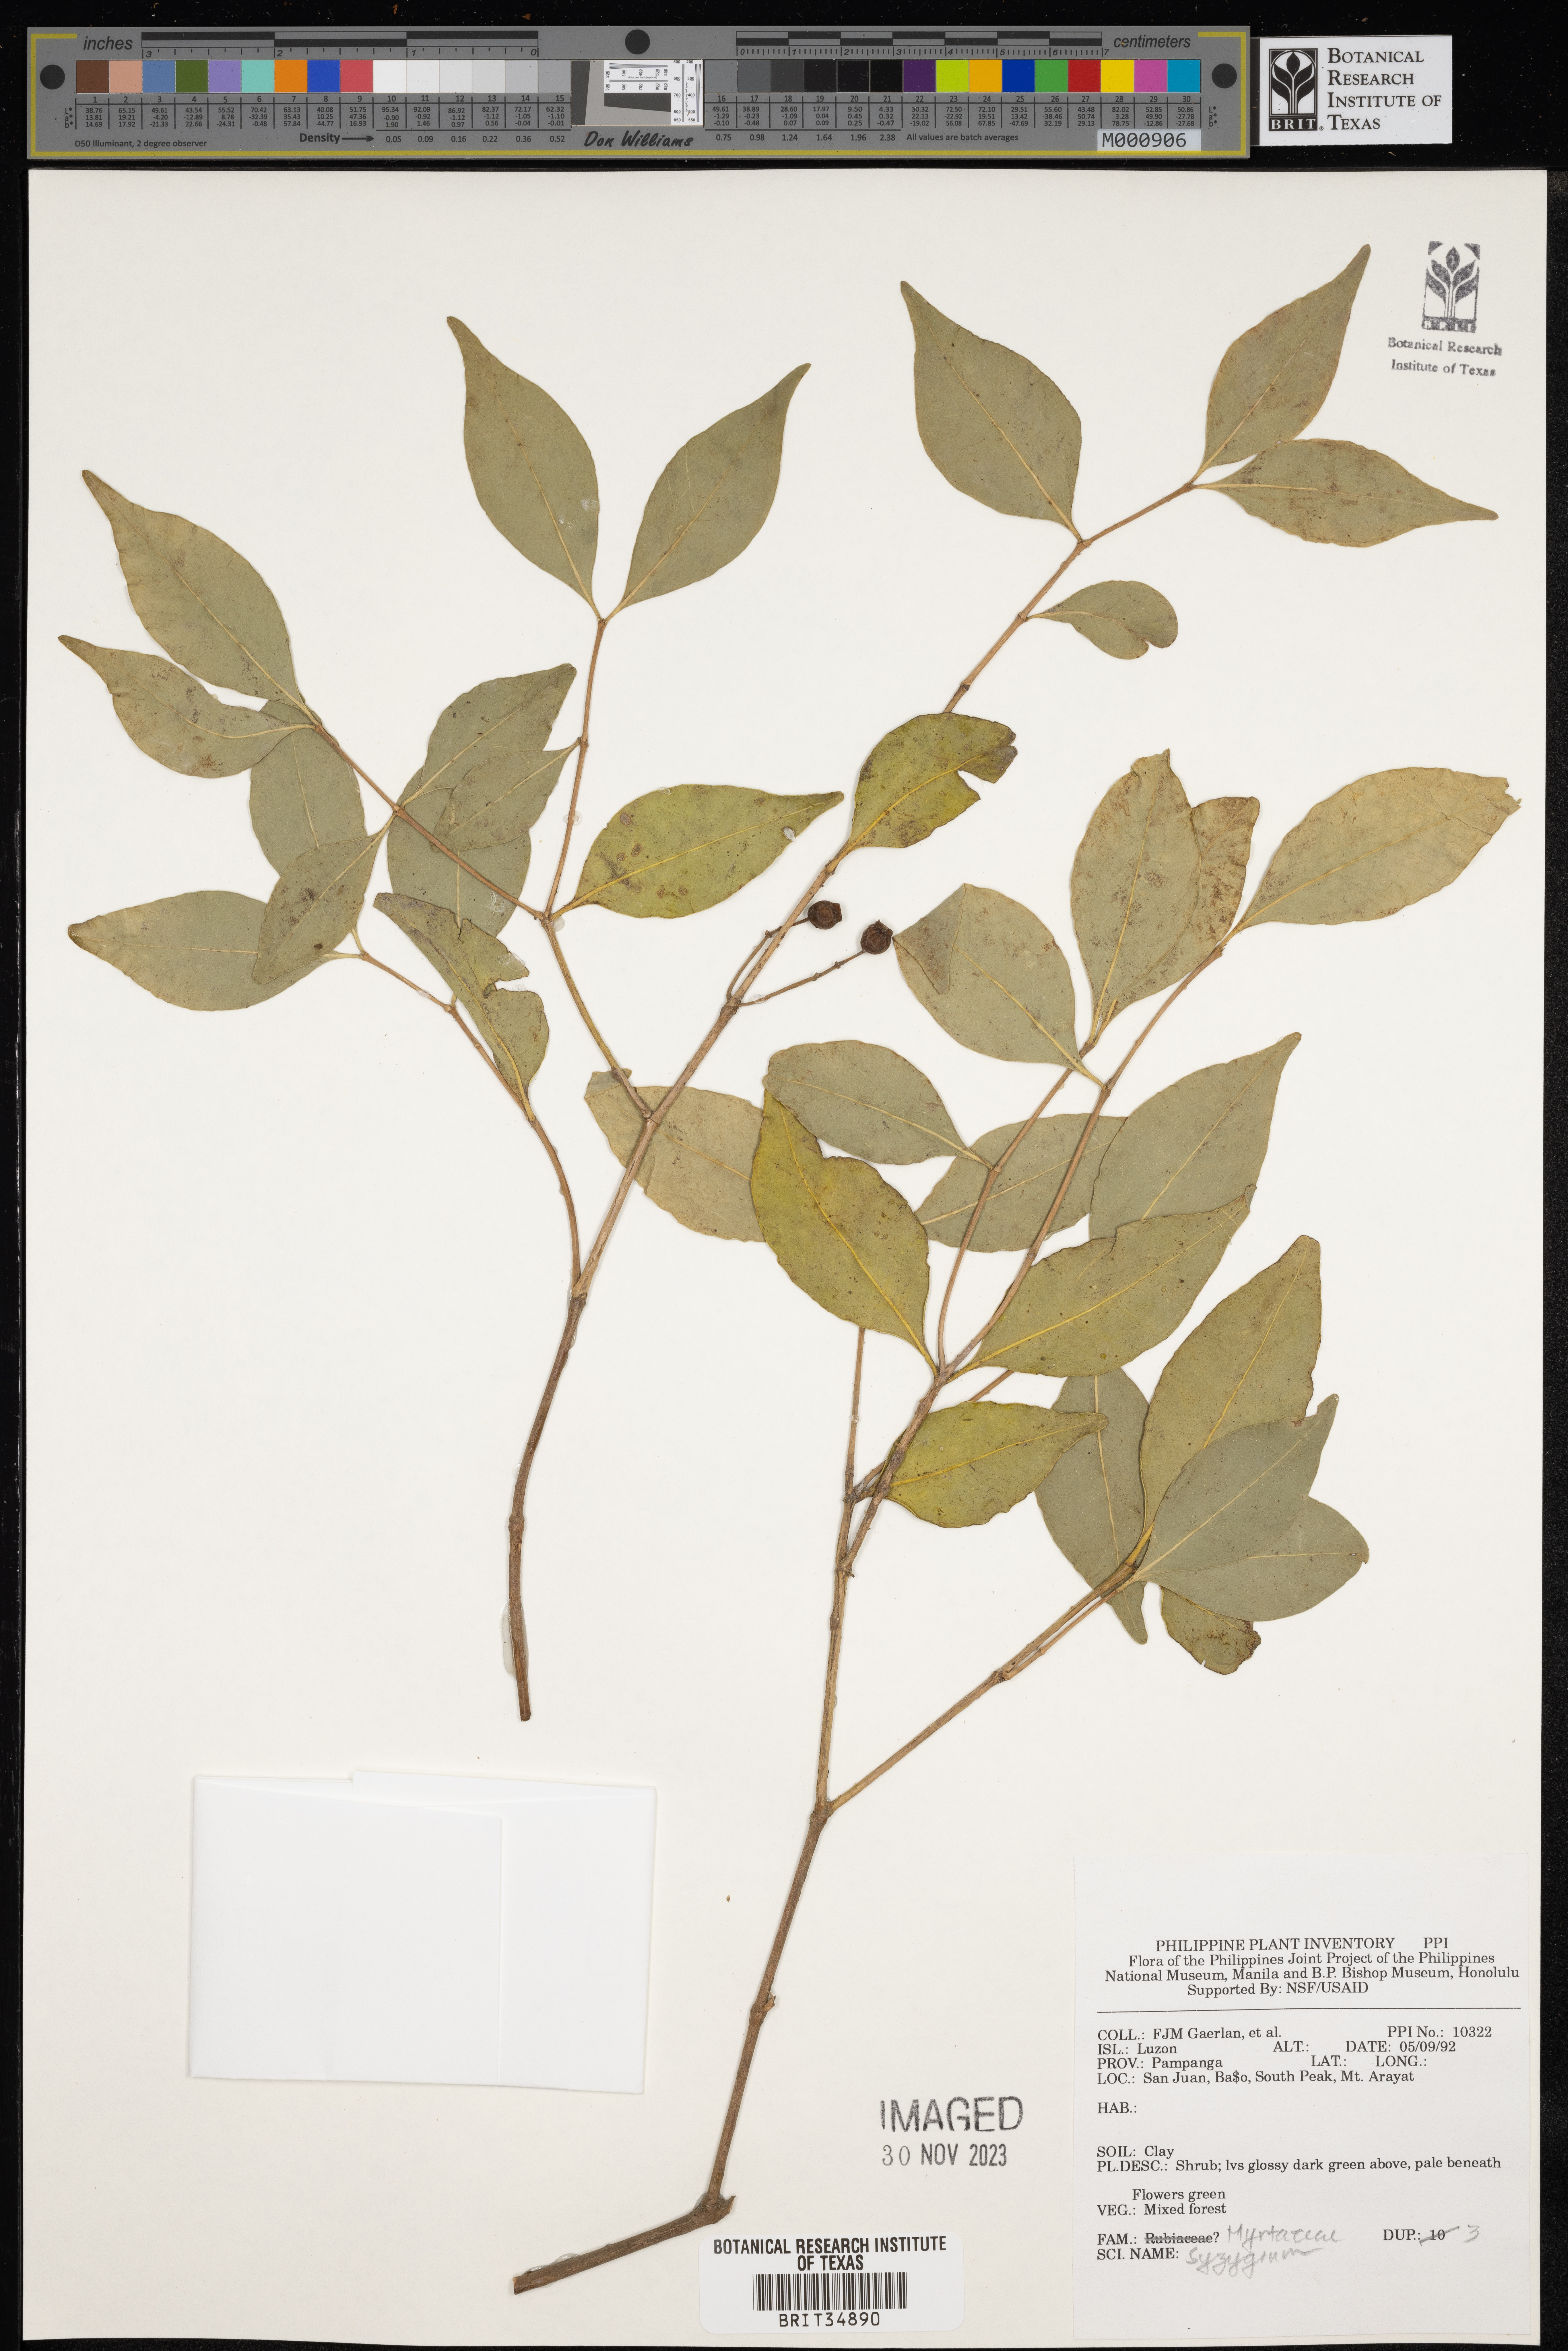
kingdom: Plantae
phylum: Tracheophyta
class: Magnoliopsida
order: Myrtales
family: Myrtaceae
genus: Syzygium
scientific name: Syzygium
